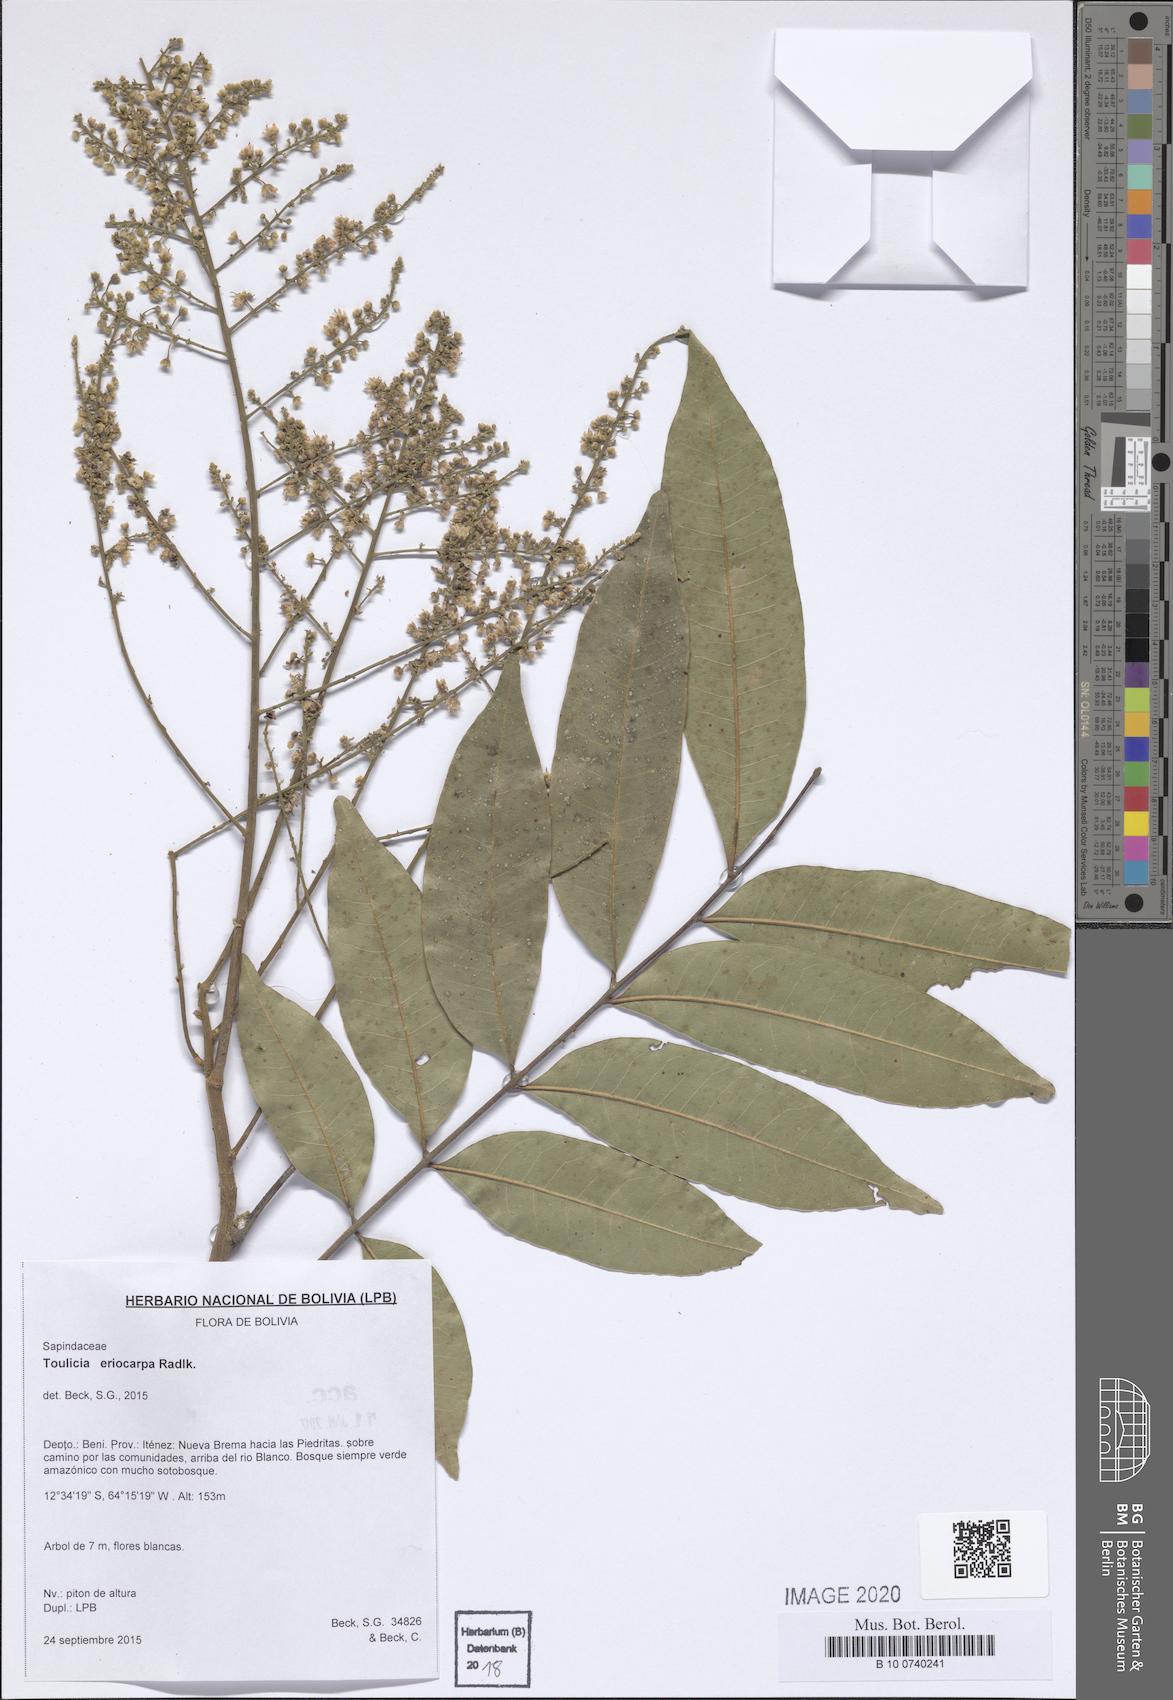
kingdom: Plantae
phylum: Tracheophyta
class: Magnoliopsida
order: Sapindales
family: Sapindaceae
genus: Toulicia
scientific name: Toulicia eriocarpa
